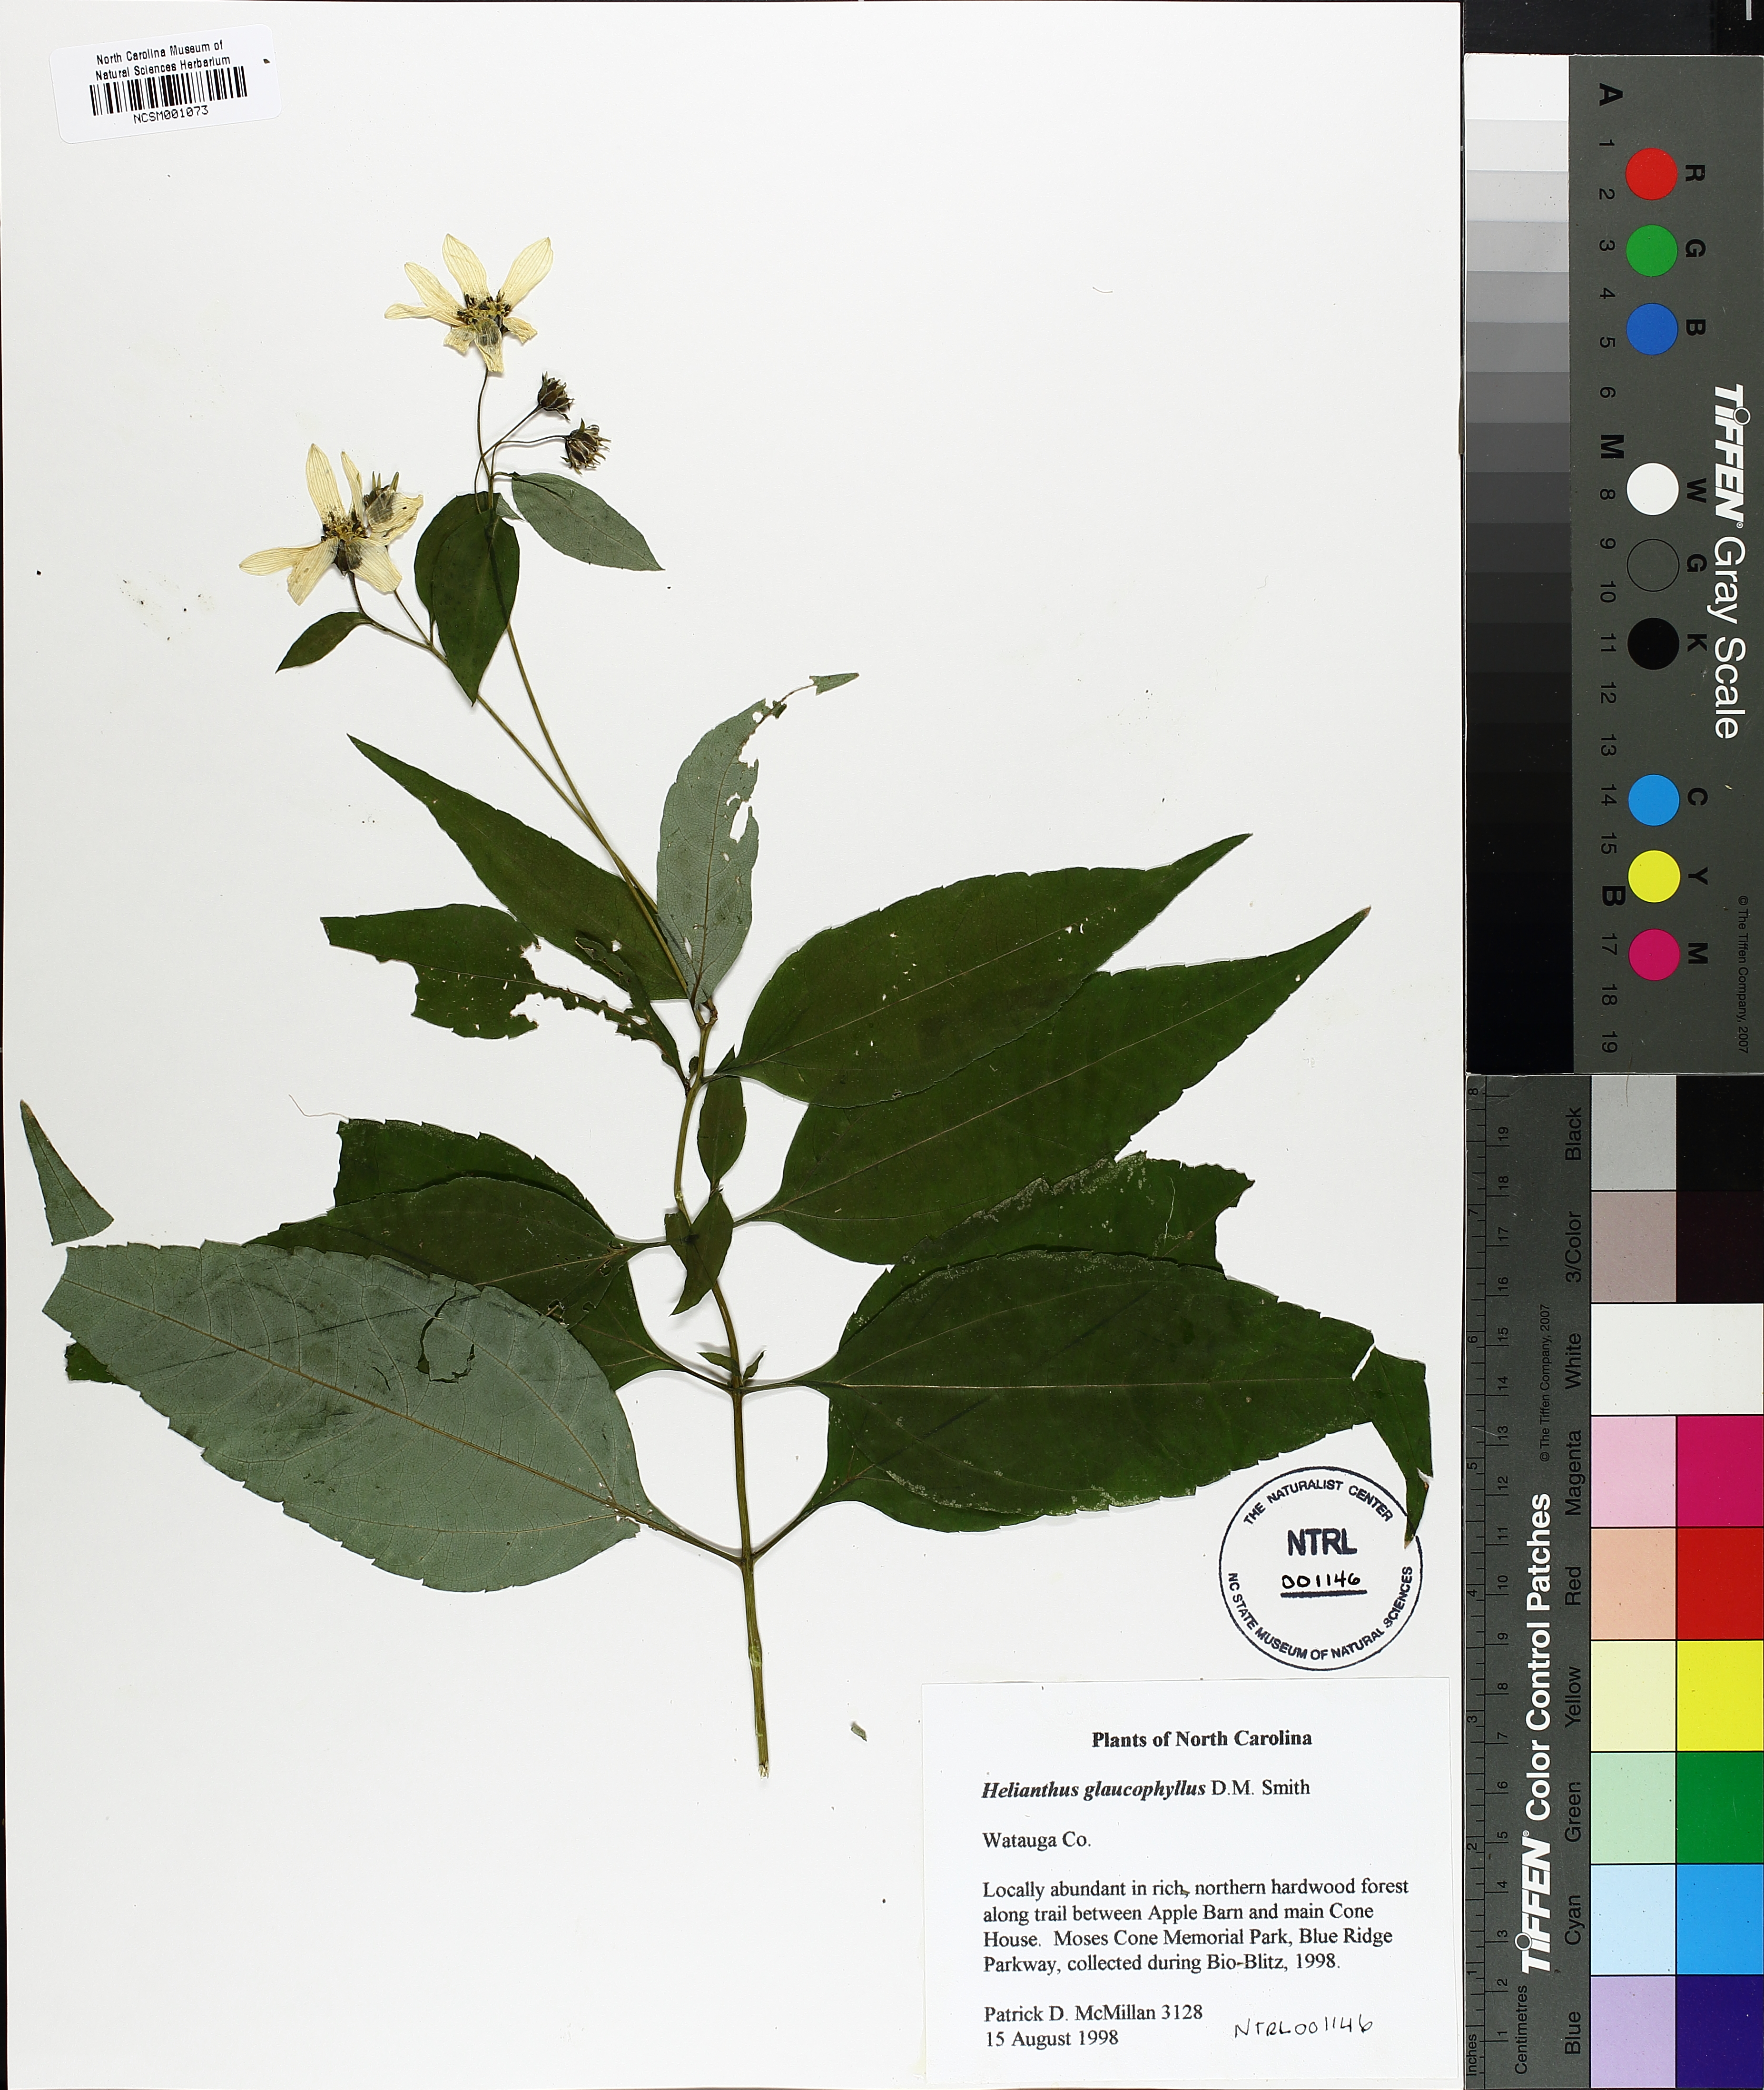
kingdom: Plantae
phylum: Tracheophyta
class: Magnoliopsida
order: Asterales
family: Asteraceae
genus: Helianthus
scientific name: Helianthus glaucophyllus
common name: White-leaf sunflower
